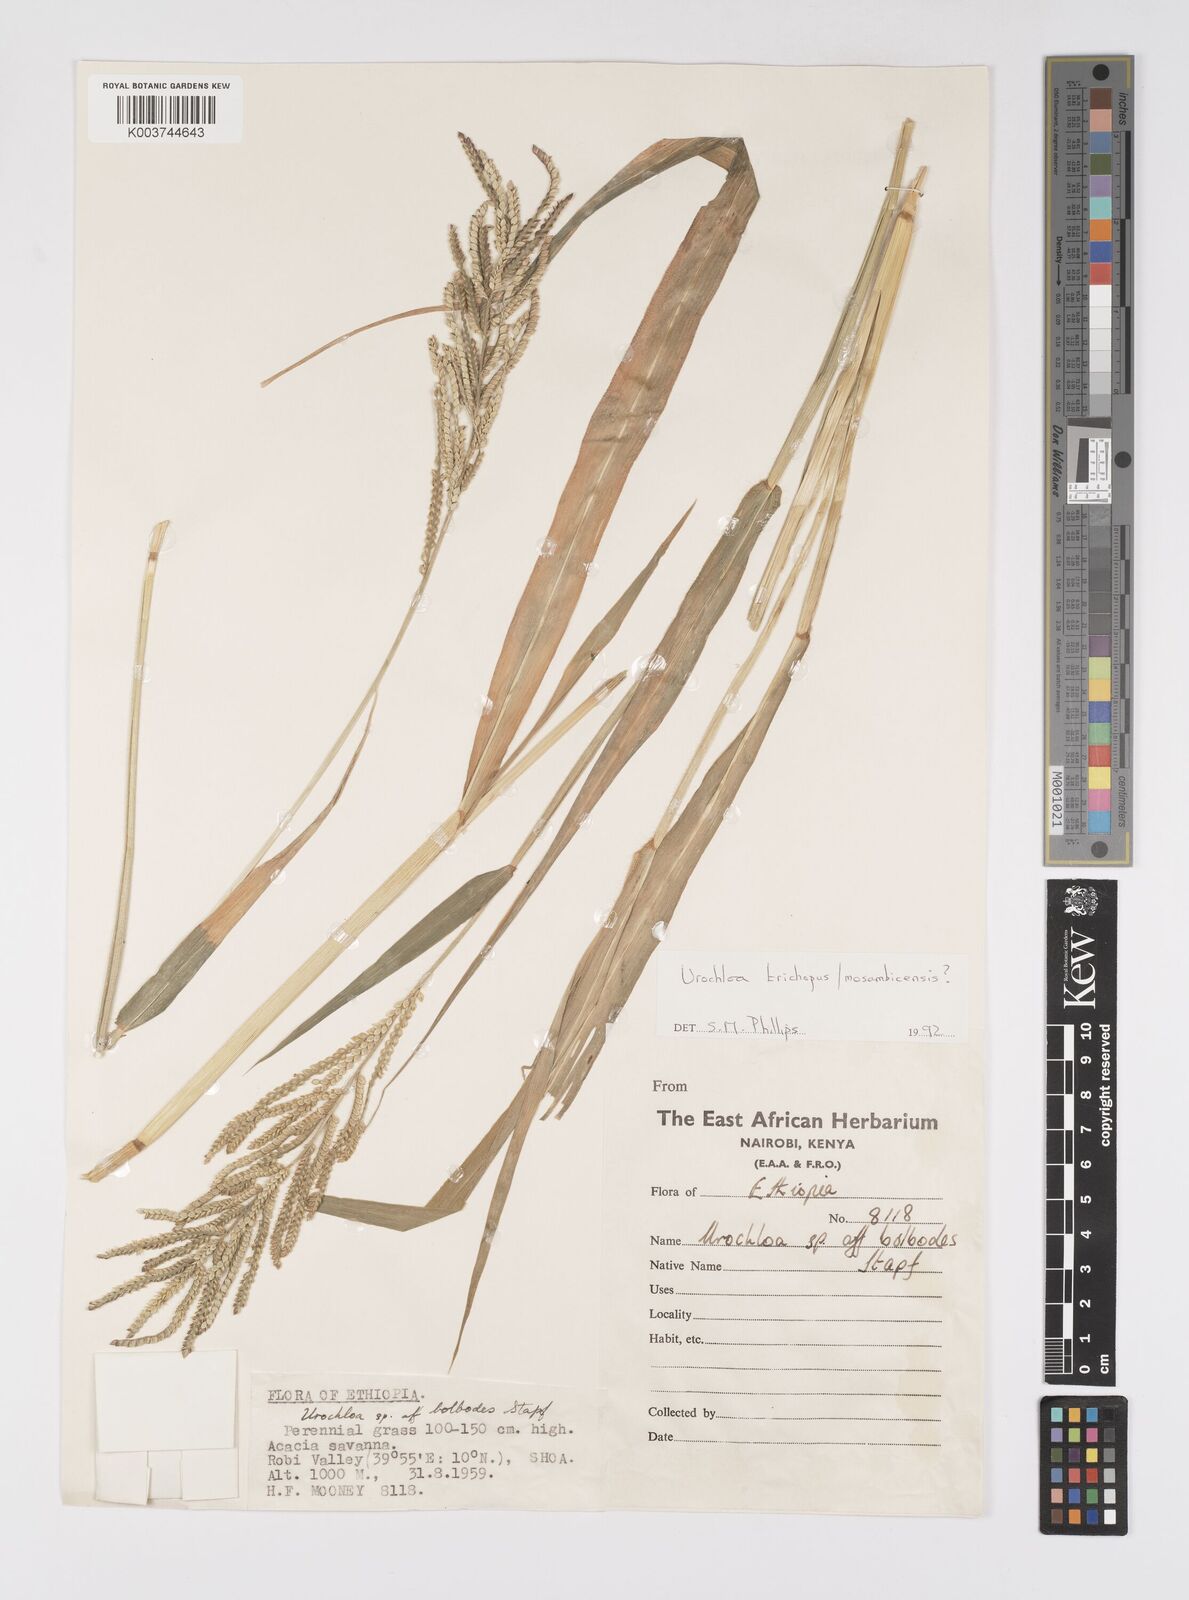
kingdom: Plantae
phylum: Tracheophyta
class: Liliopsida
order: Poales
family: Poaceae
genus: Urochloa
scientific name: Urochloa trichopus
